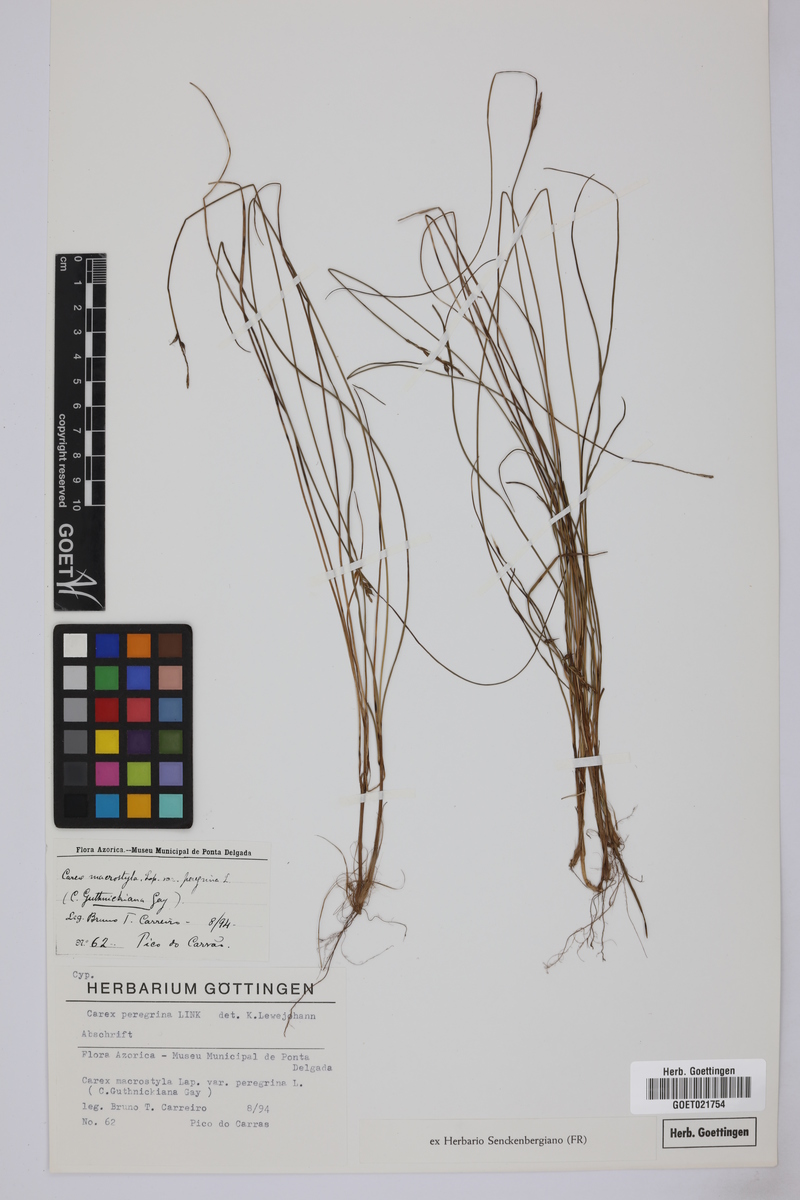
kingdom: Plantae
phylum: Tracheophyta
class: Liliopsida
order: Poales
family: Cyperaceae
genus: Carex
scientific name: Carex peregrina
